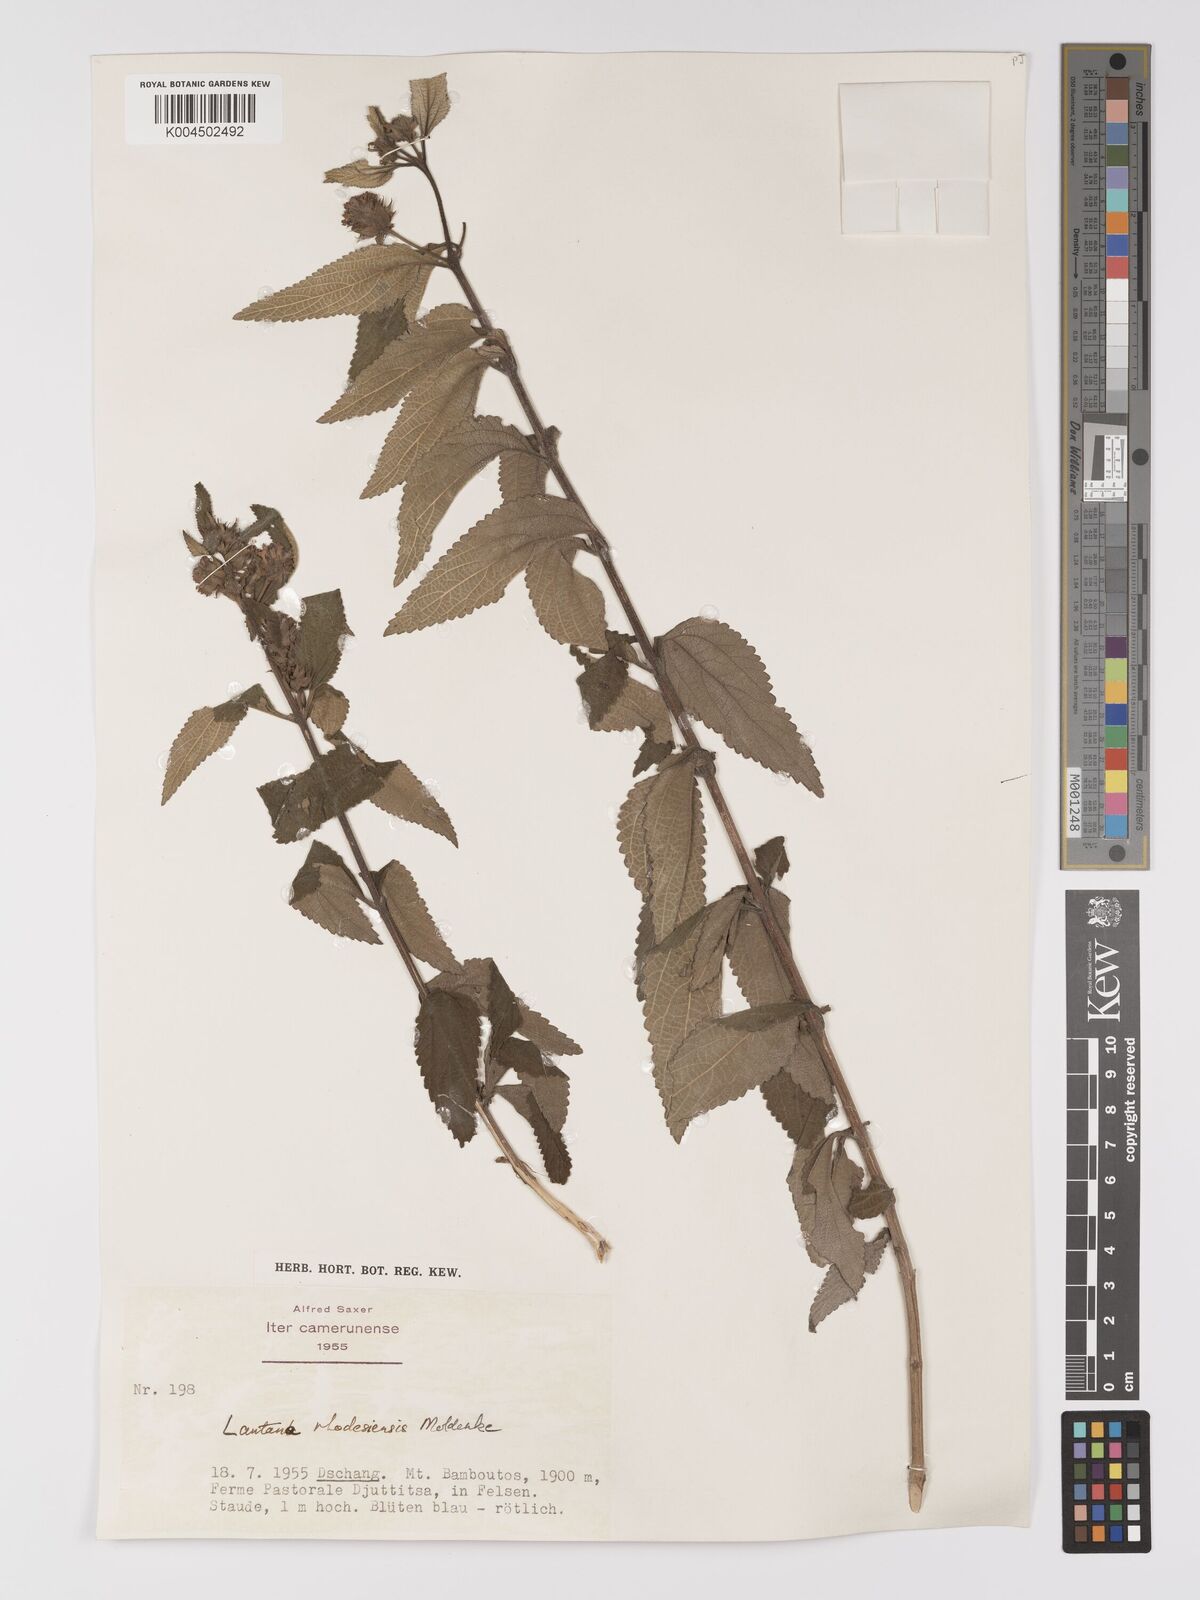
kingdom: Plantae
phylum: Tracheophyta
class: Magnoliopsida
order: Lamiales
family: Verbenaceae
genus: Lantana
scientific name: Lantana ukambensis
